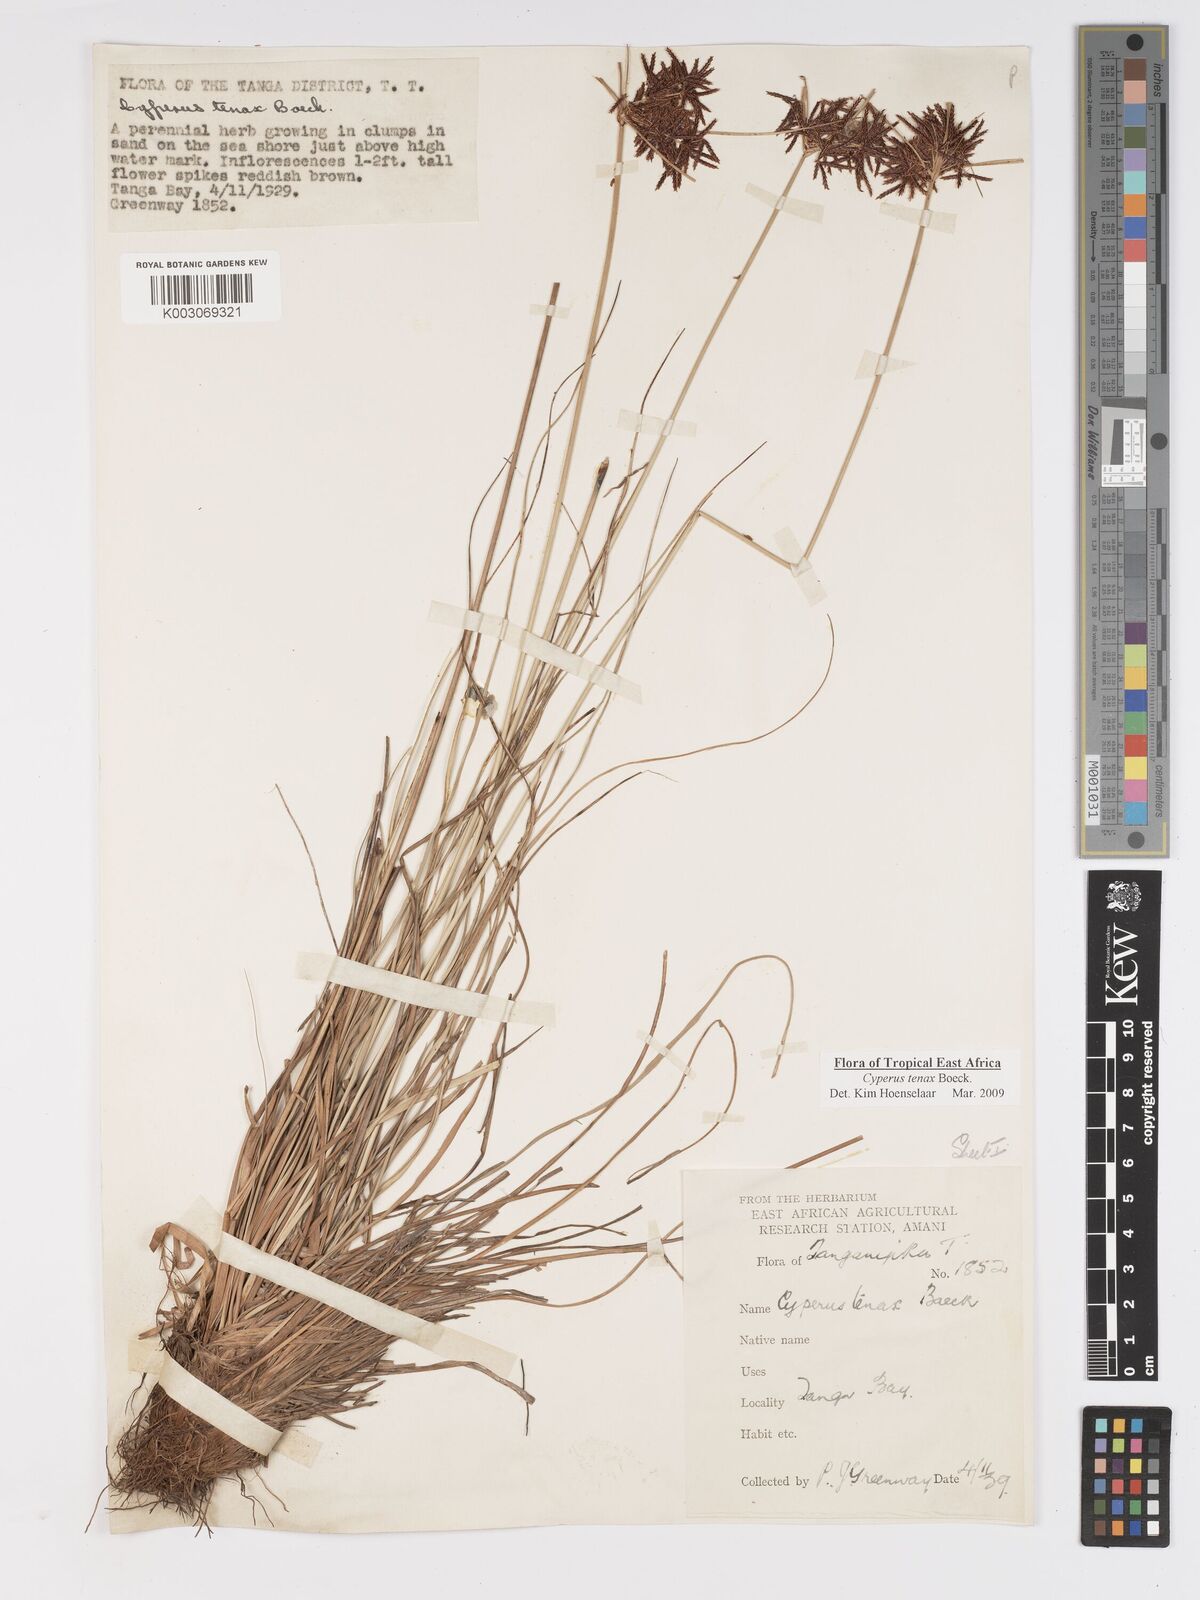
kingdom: Plantae
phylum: Tracheophyta
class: Liliopsida
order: Poales
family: Cyperaceae
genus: Cyperus
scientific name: Cyperus tenax
